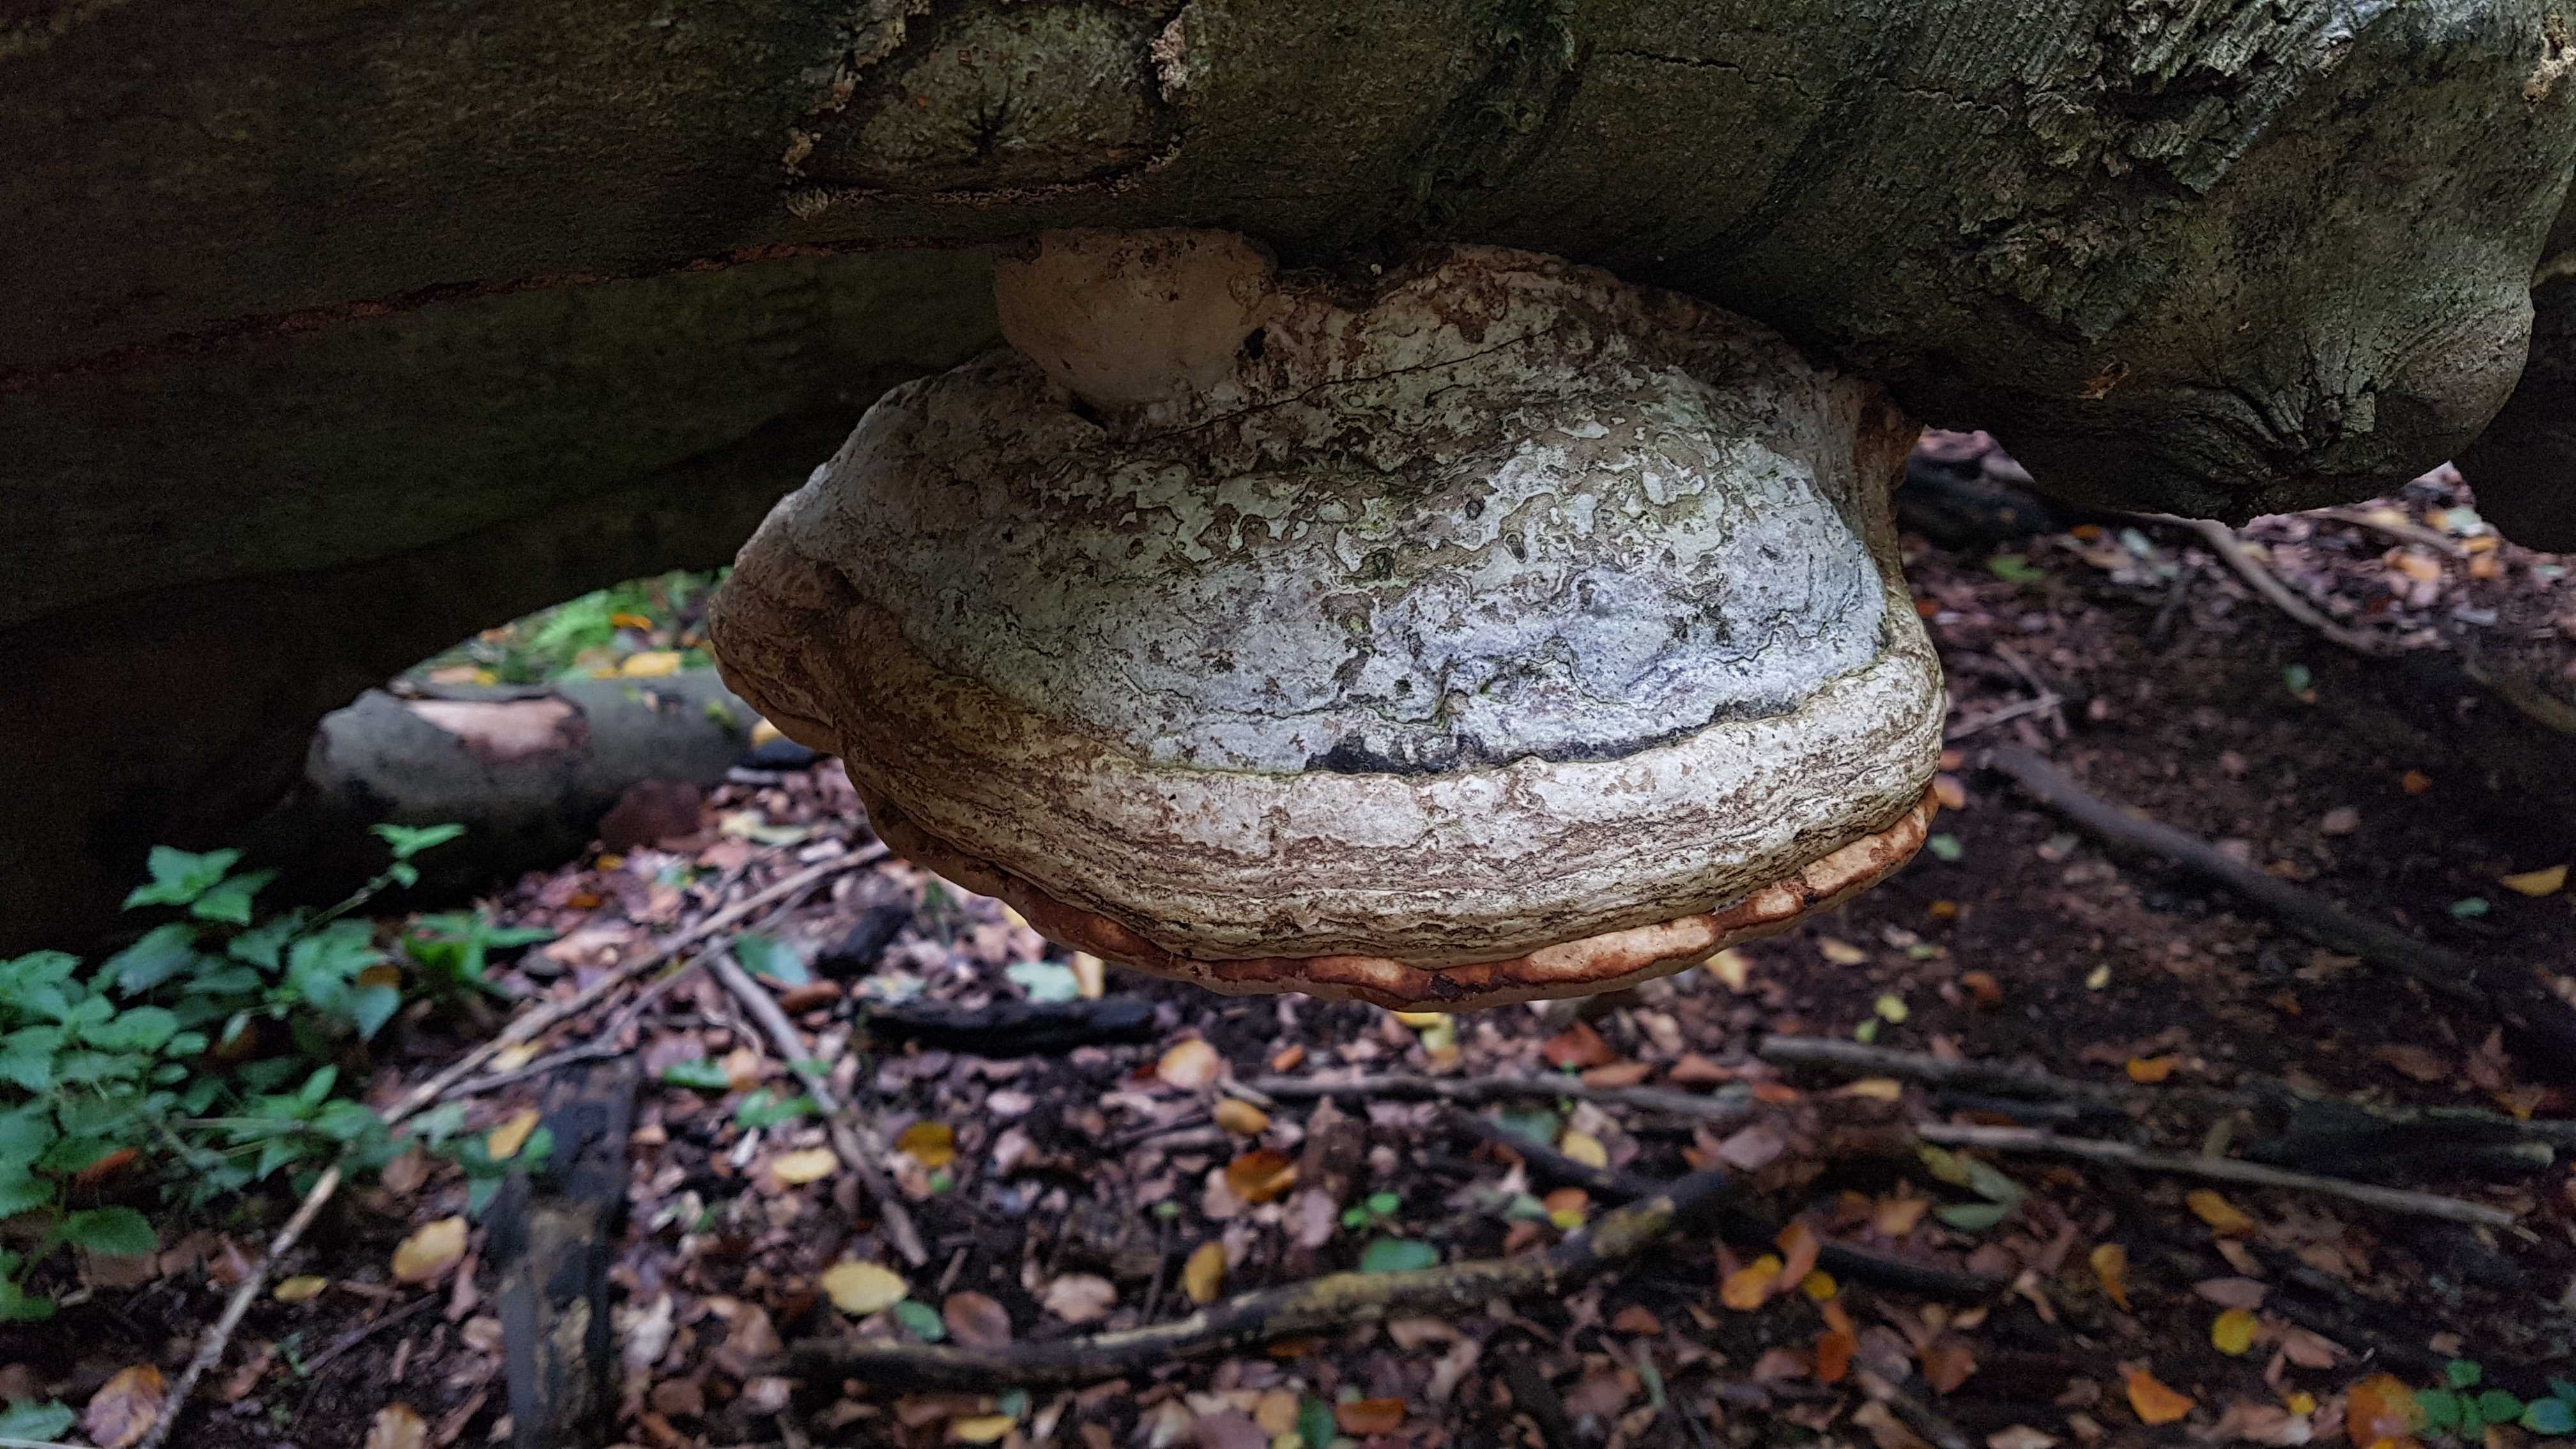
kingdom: Fungi
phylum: Basidiomycota
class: Agaricomycetes
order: Polyporales
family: Polyporaceae
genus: Fomes
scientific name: Fomes fomentarius
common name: tøndersvamp
